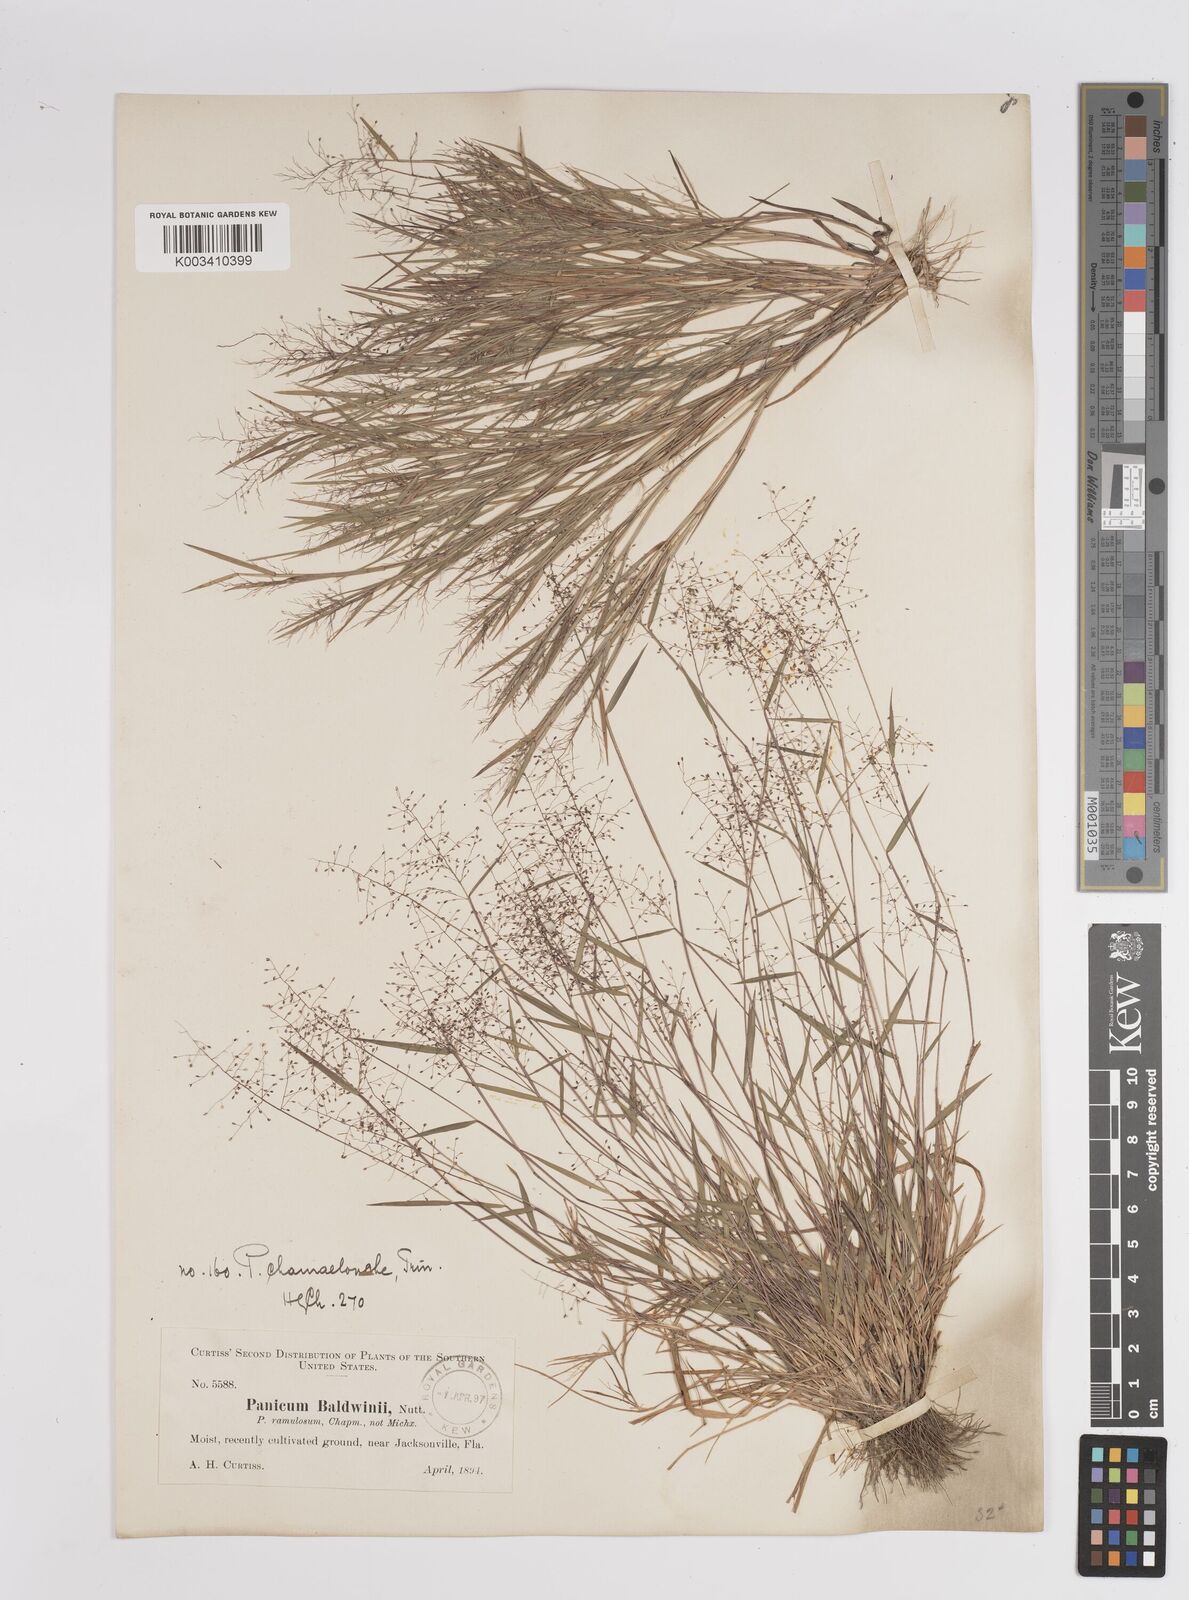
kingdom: Plantae
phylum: Tracheophyta
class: Liliopsida
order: Poales
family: Poaceae
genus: Dichanthelium
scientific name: Dichanthelium chamaelonche
